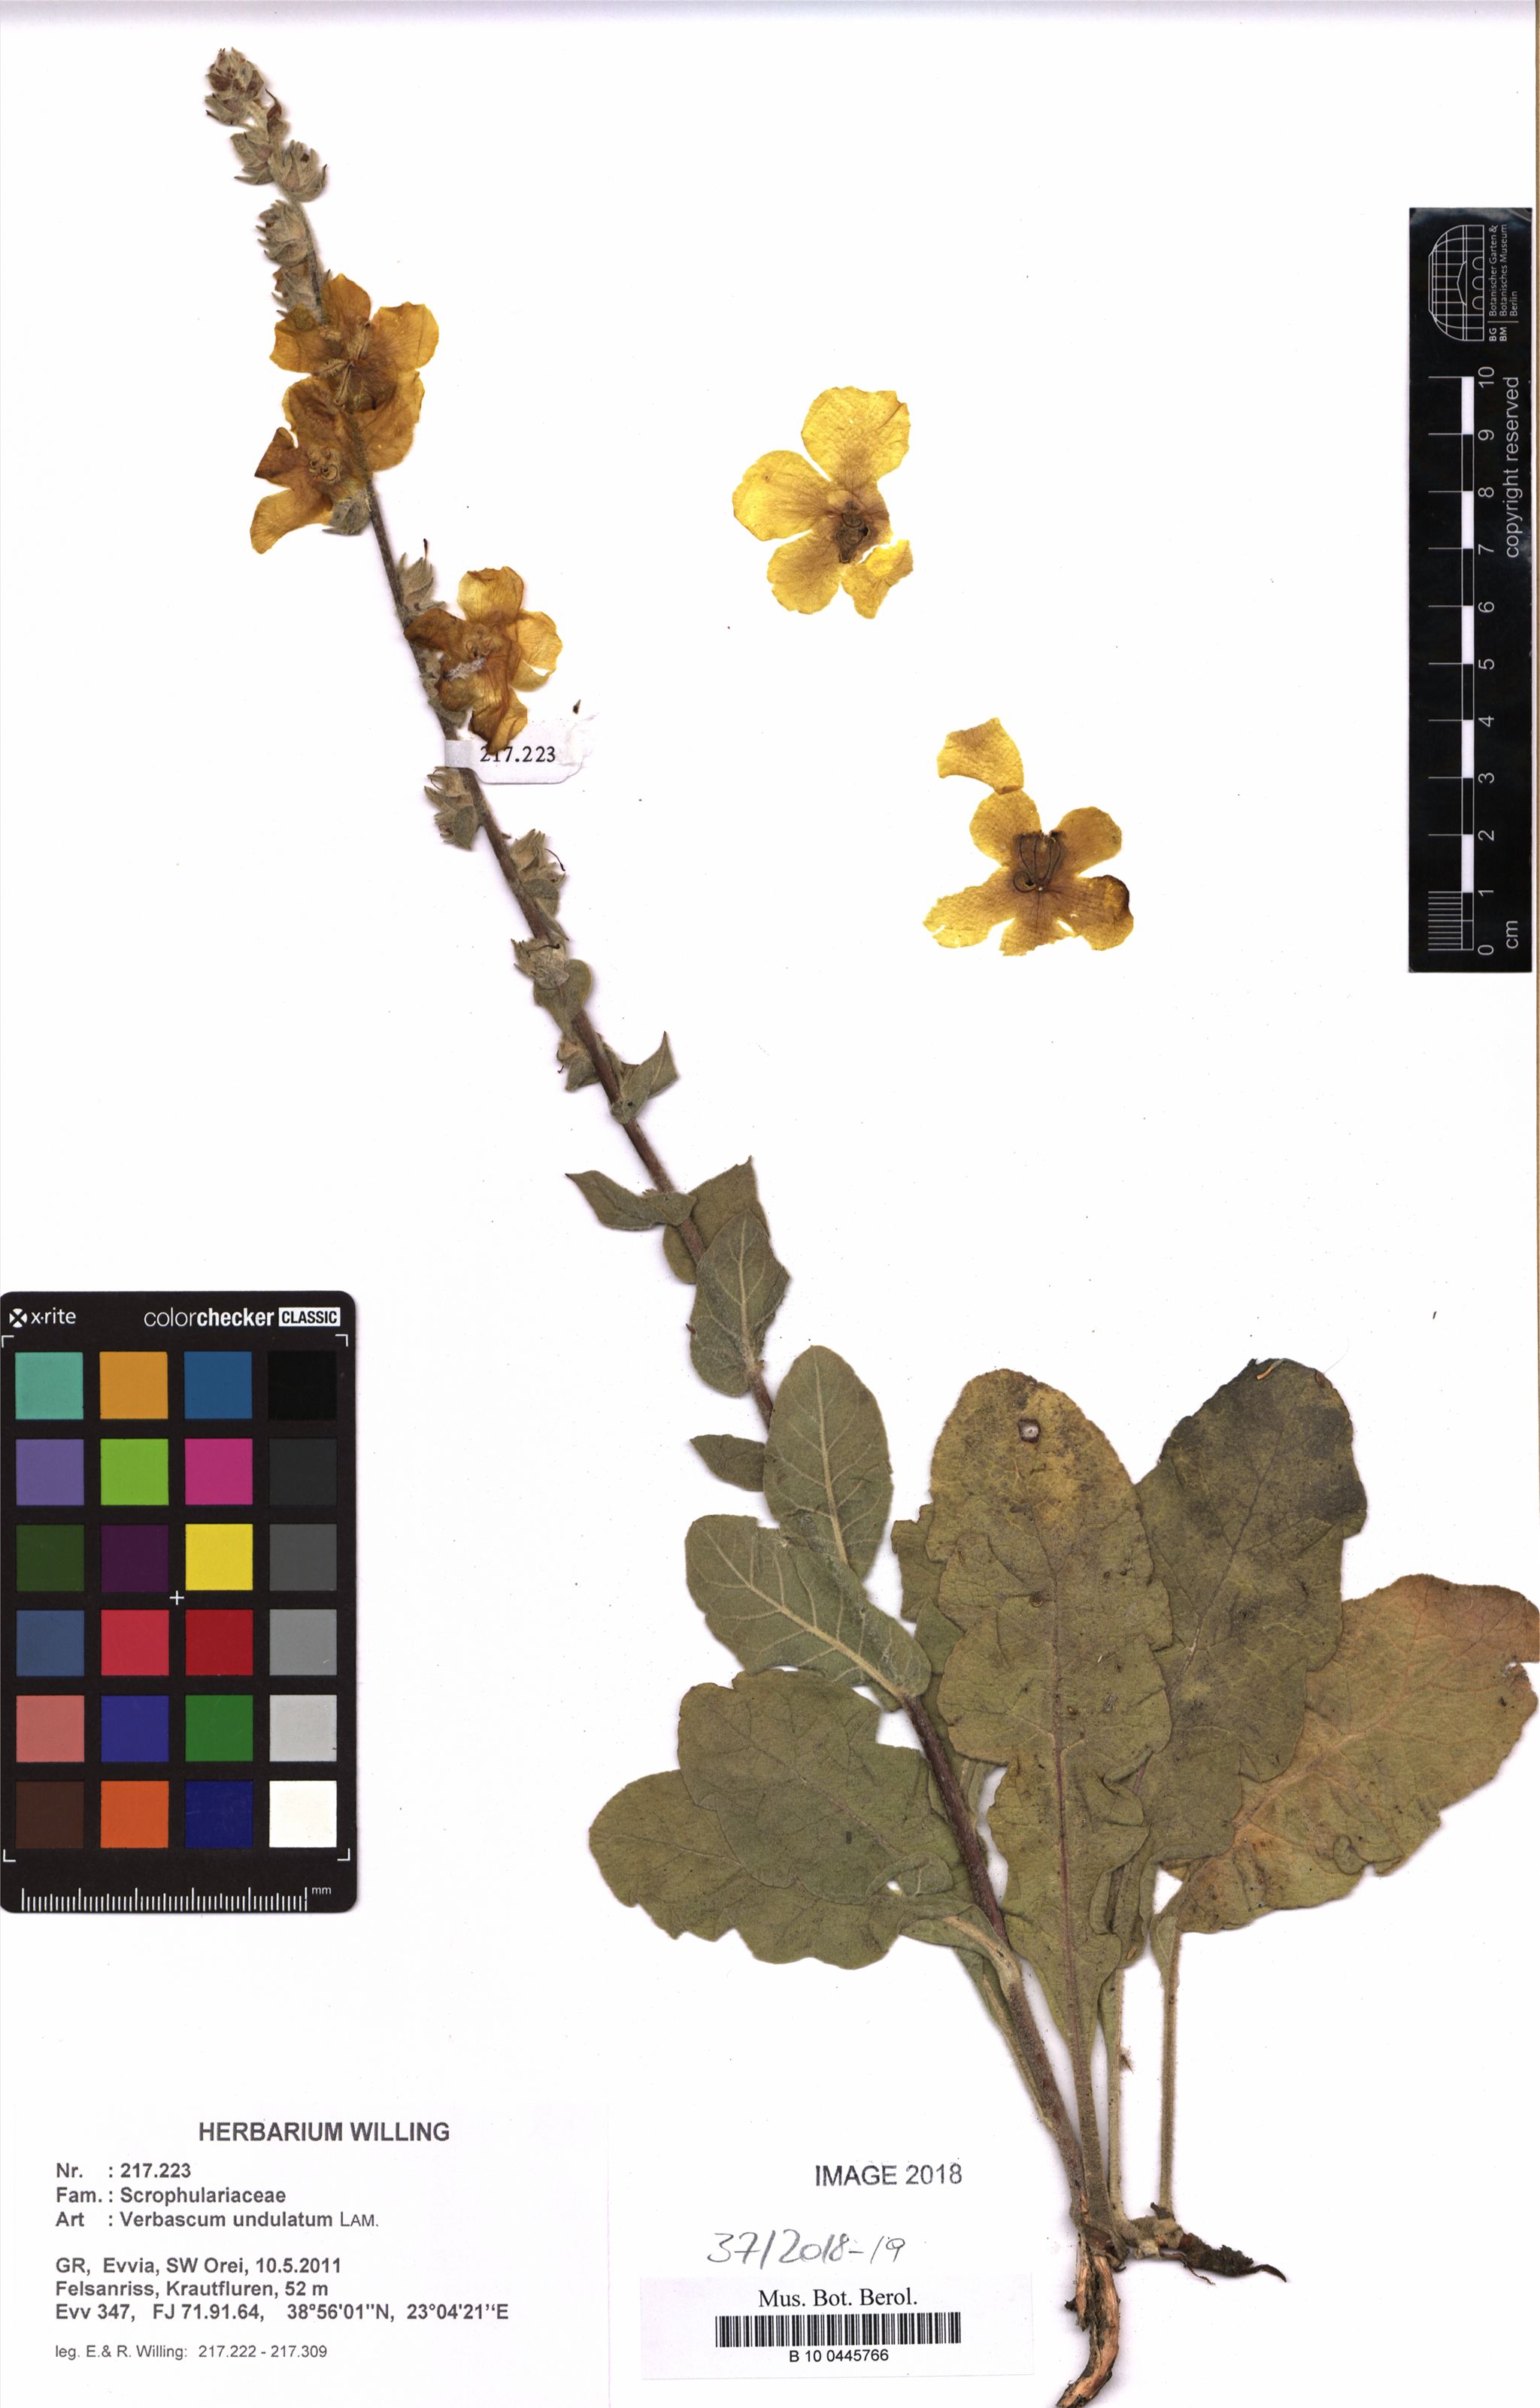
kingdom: Plantae
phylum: Tracheophyta
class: Magnoliopsida
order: Lamiales
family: Scrophulariaceae
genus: Verbascum
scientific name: Verbascum undulatum
